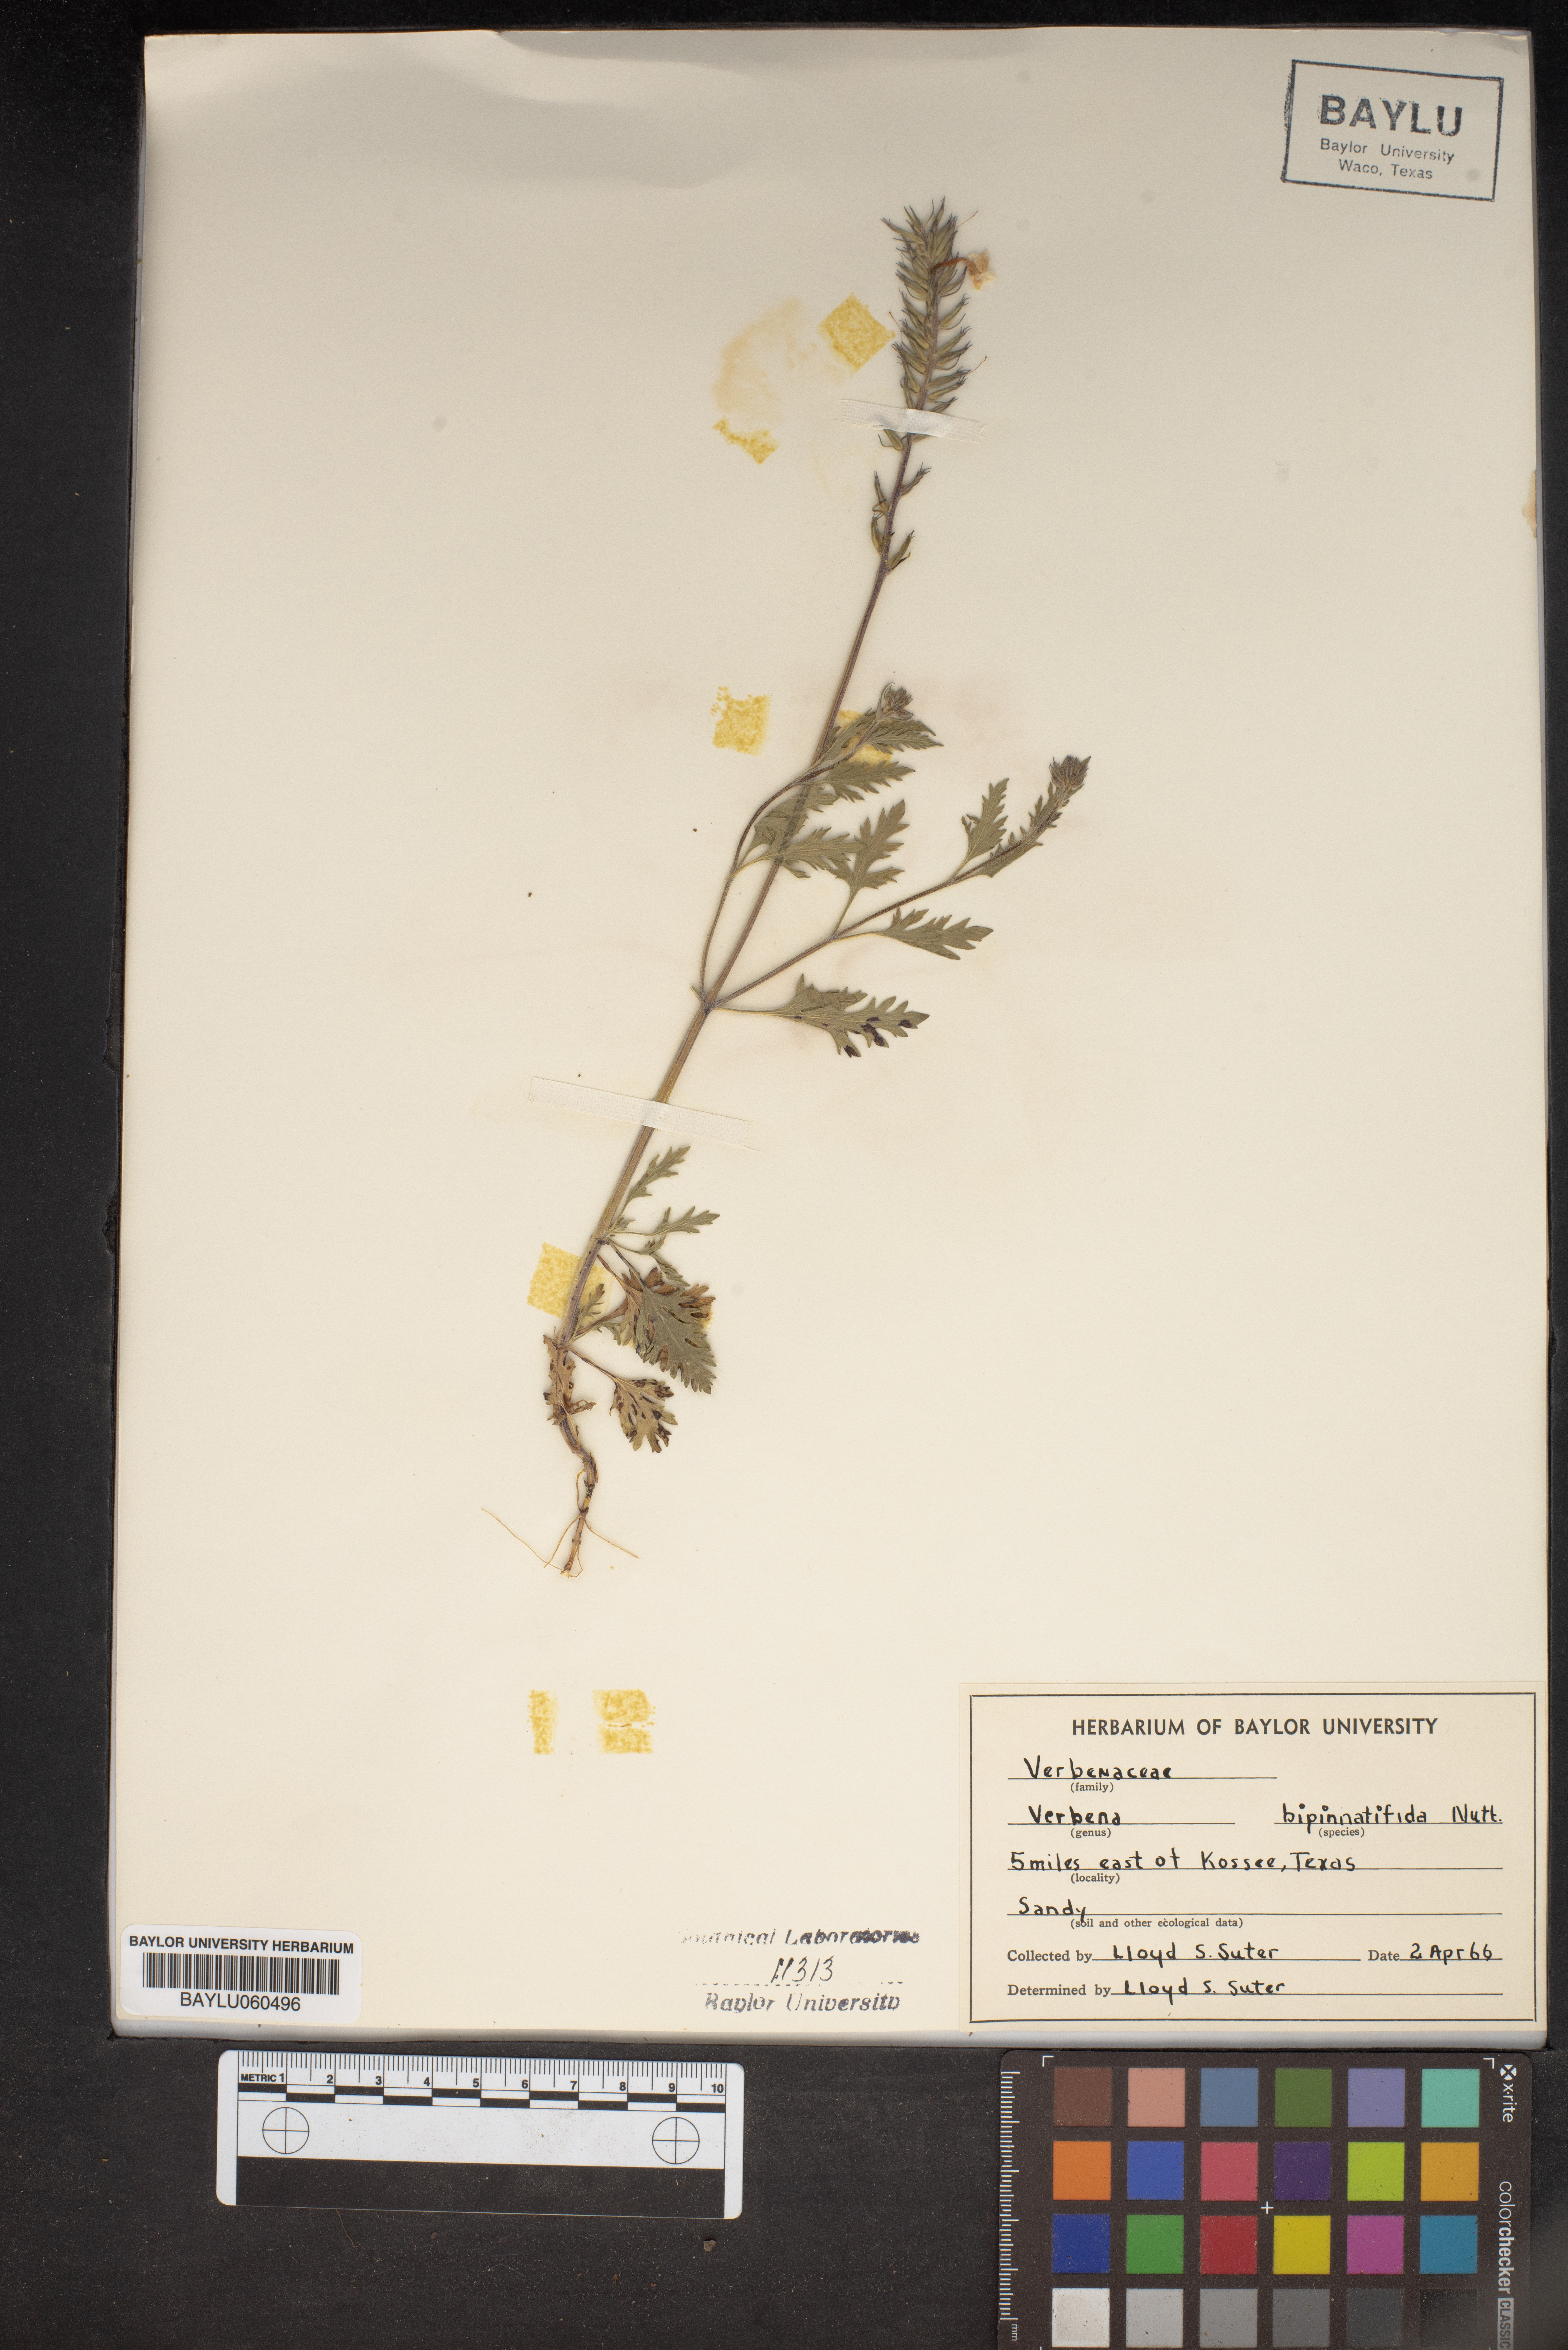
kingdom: Plantae
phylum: Tracheophyta
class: Magnoliopsida
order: Lamiales
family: Verbenaceae
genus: Verbena
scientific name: Verbena bipinnatifida
